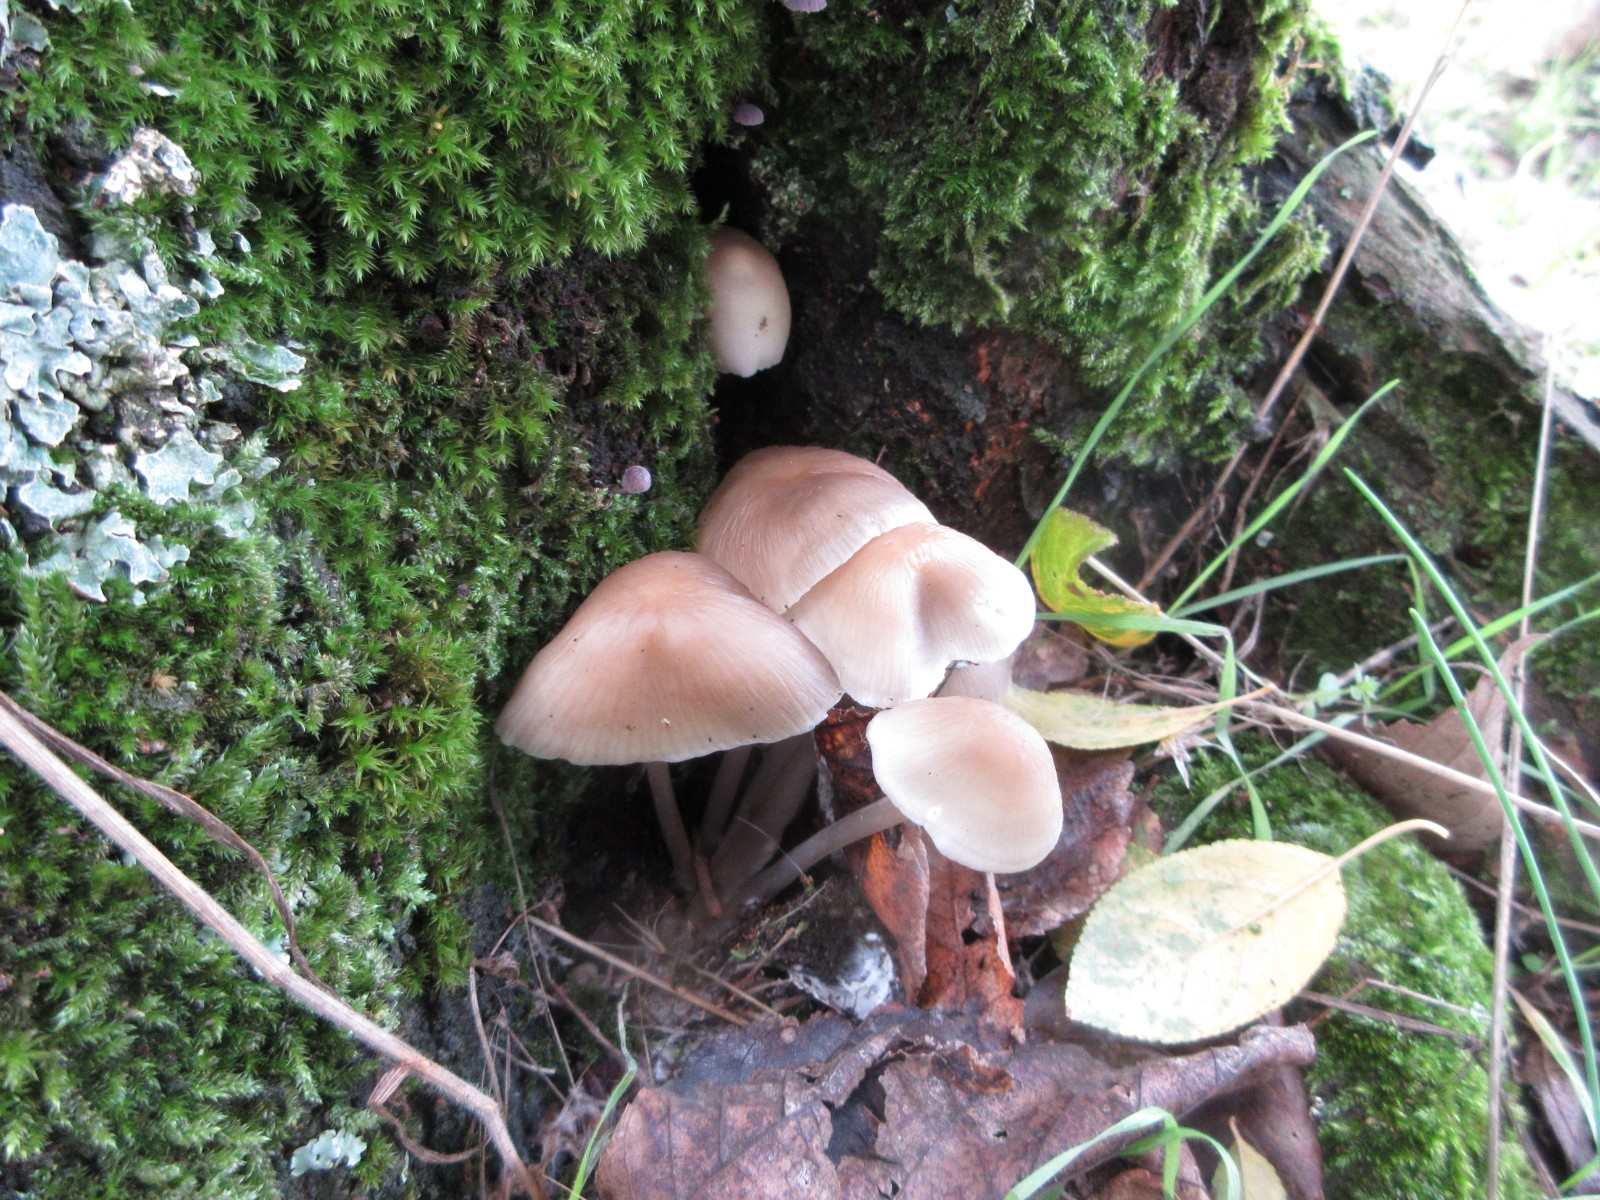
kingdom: Fungi
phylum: Basidiomycota
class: Agaricomycetes
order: Agaricales
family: Mycenaceae
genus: Mycena
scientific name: Mycena galericulata
